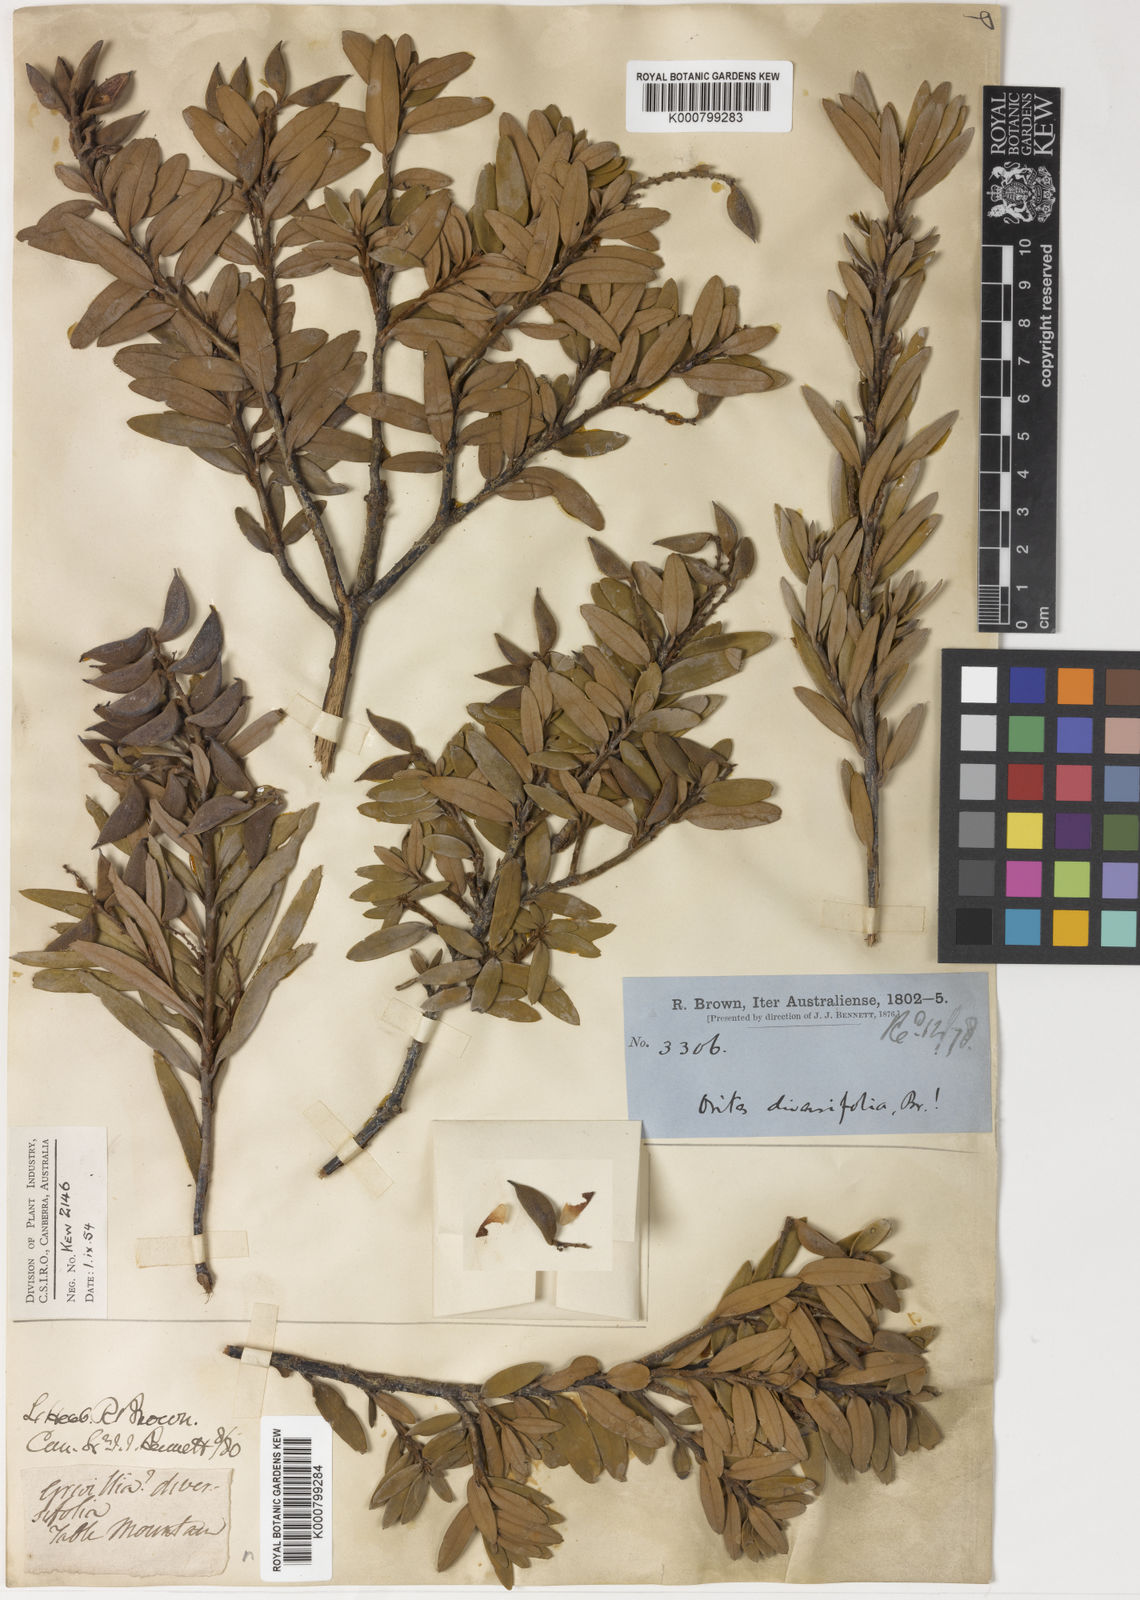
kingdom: Plantae
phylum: Tracheophyta
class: Magnoliopsida
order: Proteales
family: Proteaceae
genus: Orites
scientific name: Orites diversifolius
